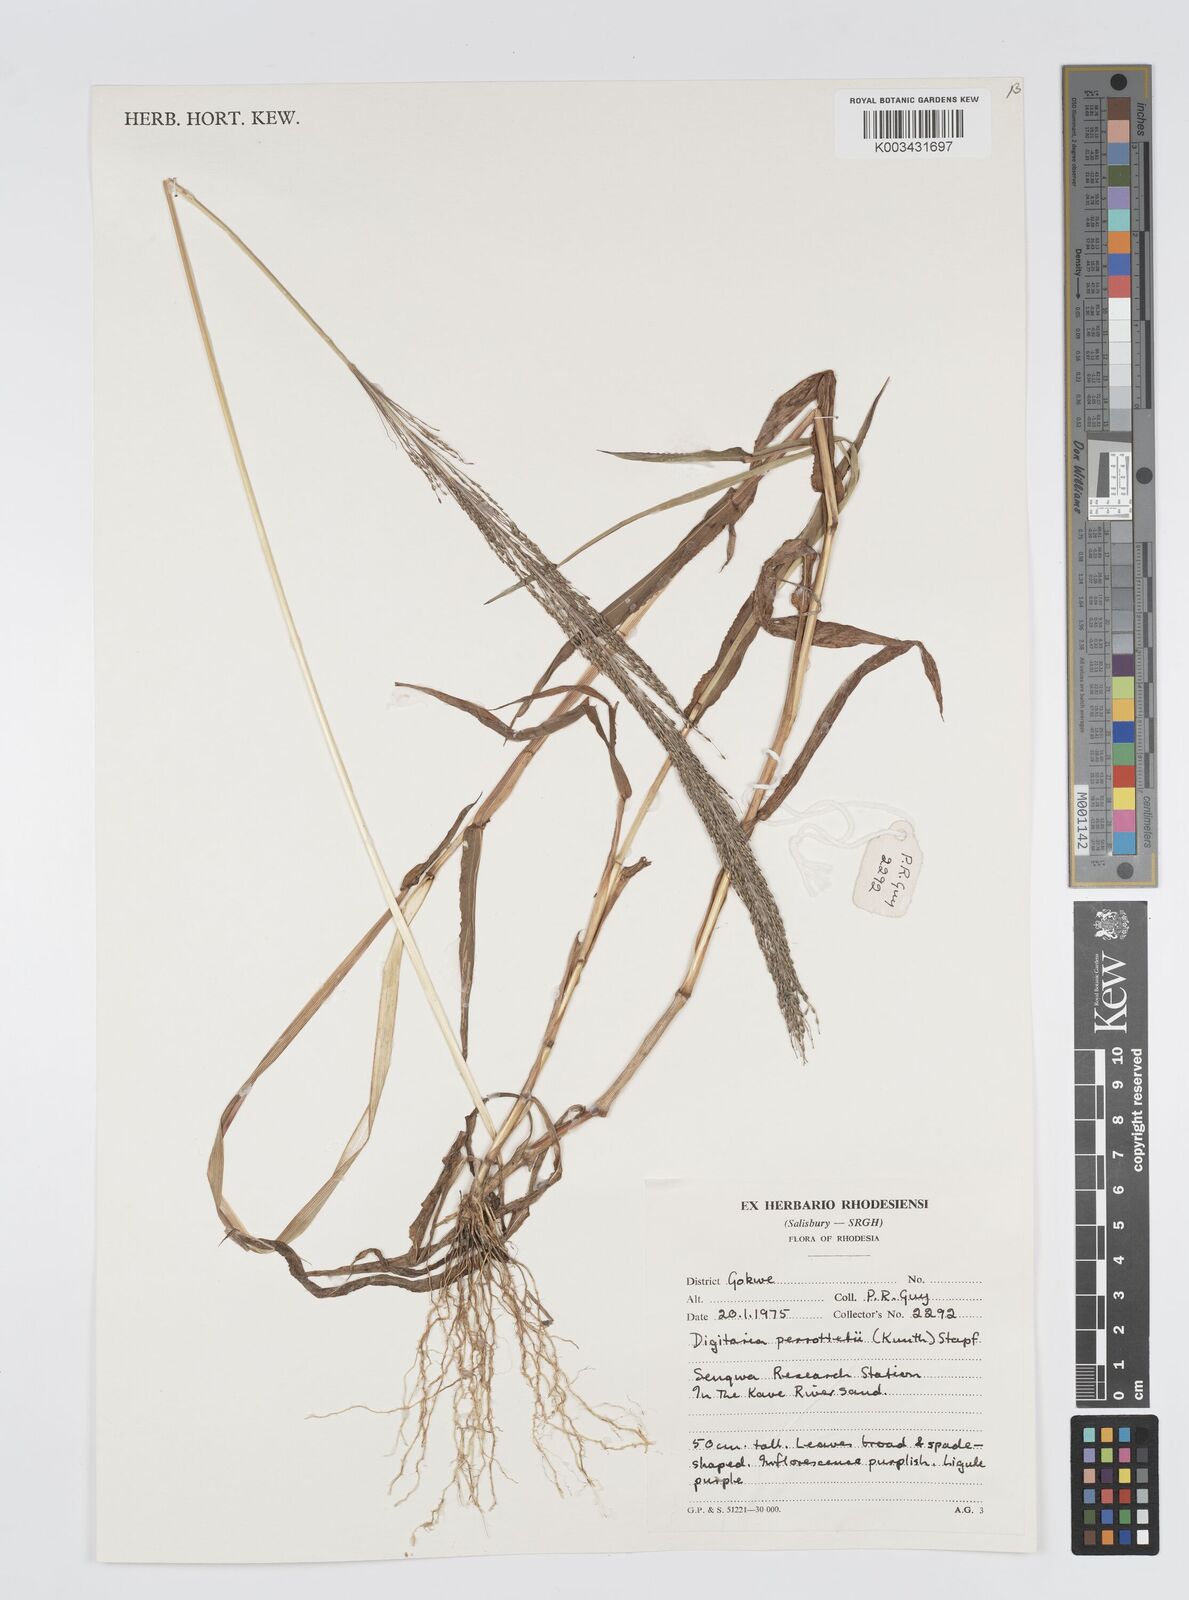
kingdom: Plantae
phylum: Tracheophyta
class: Liliopsida
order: Poales
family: Poaceae
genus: Digitaria
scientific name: Digitaria perrottetii
